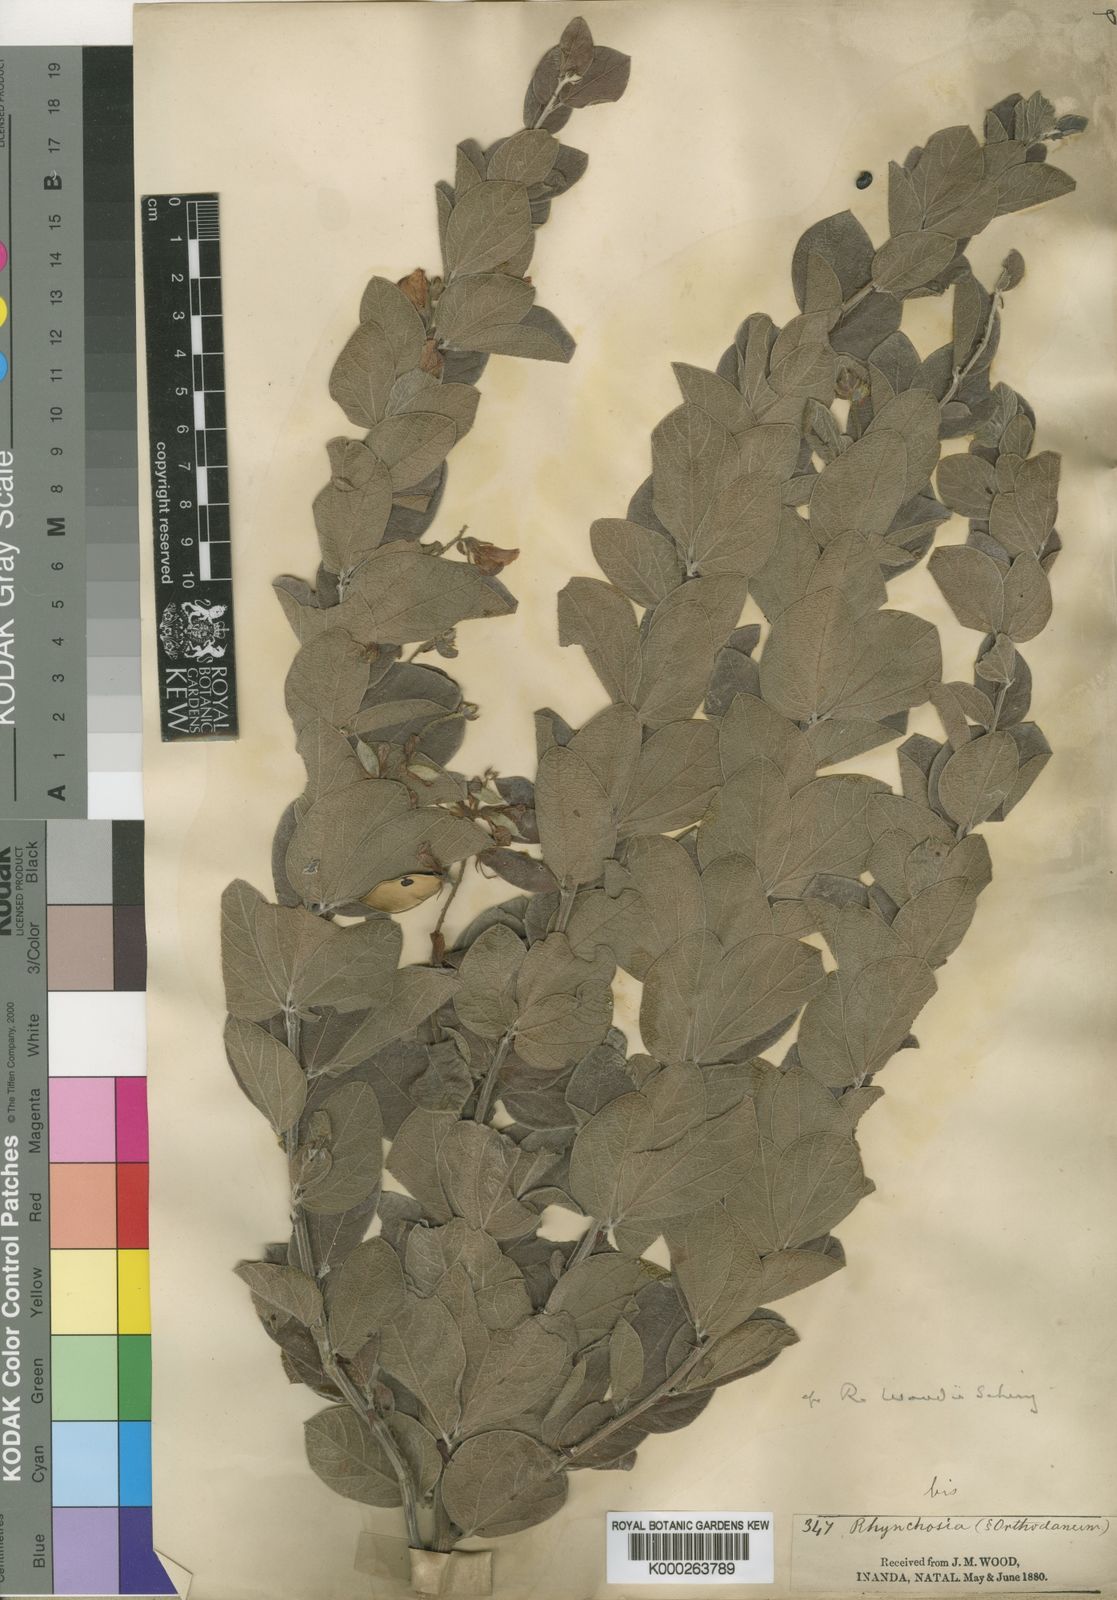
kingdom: Plantae
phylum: Tracheophyta
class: Magnoliopsida
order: Fabales
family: Fabaceae
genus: Rhynchosia
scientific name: Rhynchosia woodii
